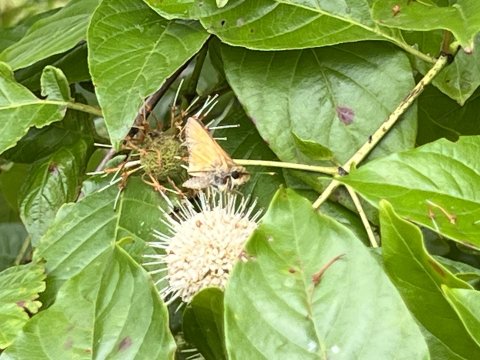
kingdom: Animalia
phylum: Arthropoda
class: Insecta
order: Lepidoptera
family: Hesperiidae
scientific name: Hesperiidae
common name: Skippers
